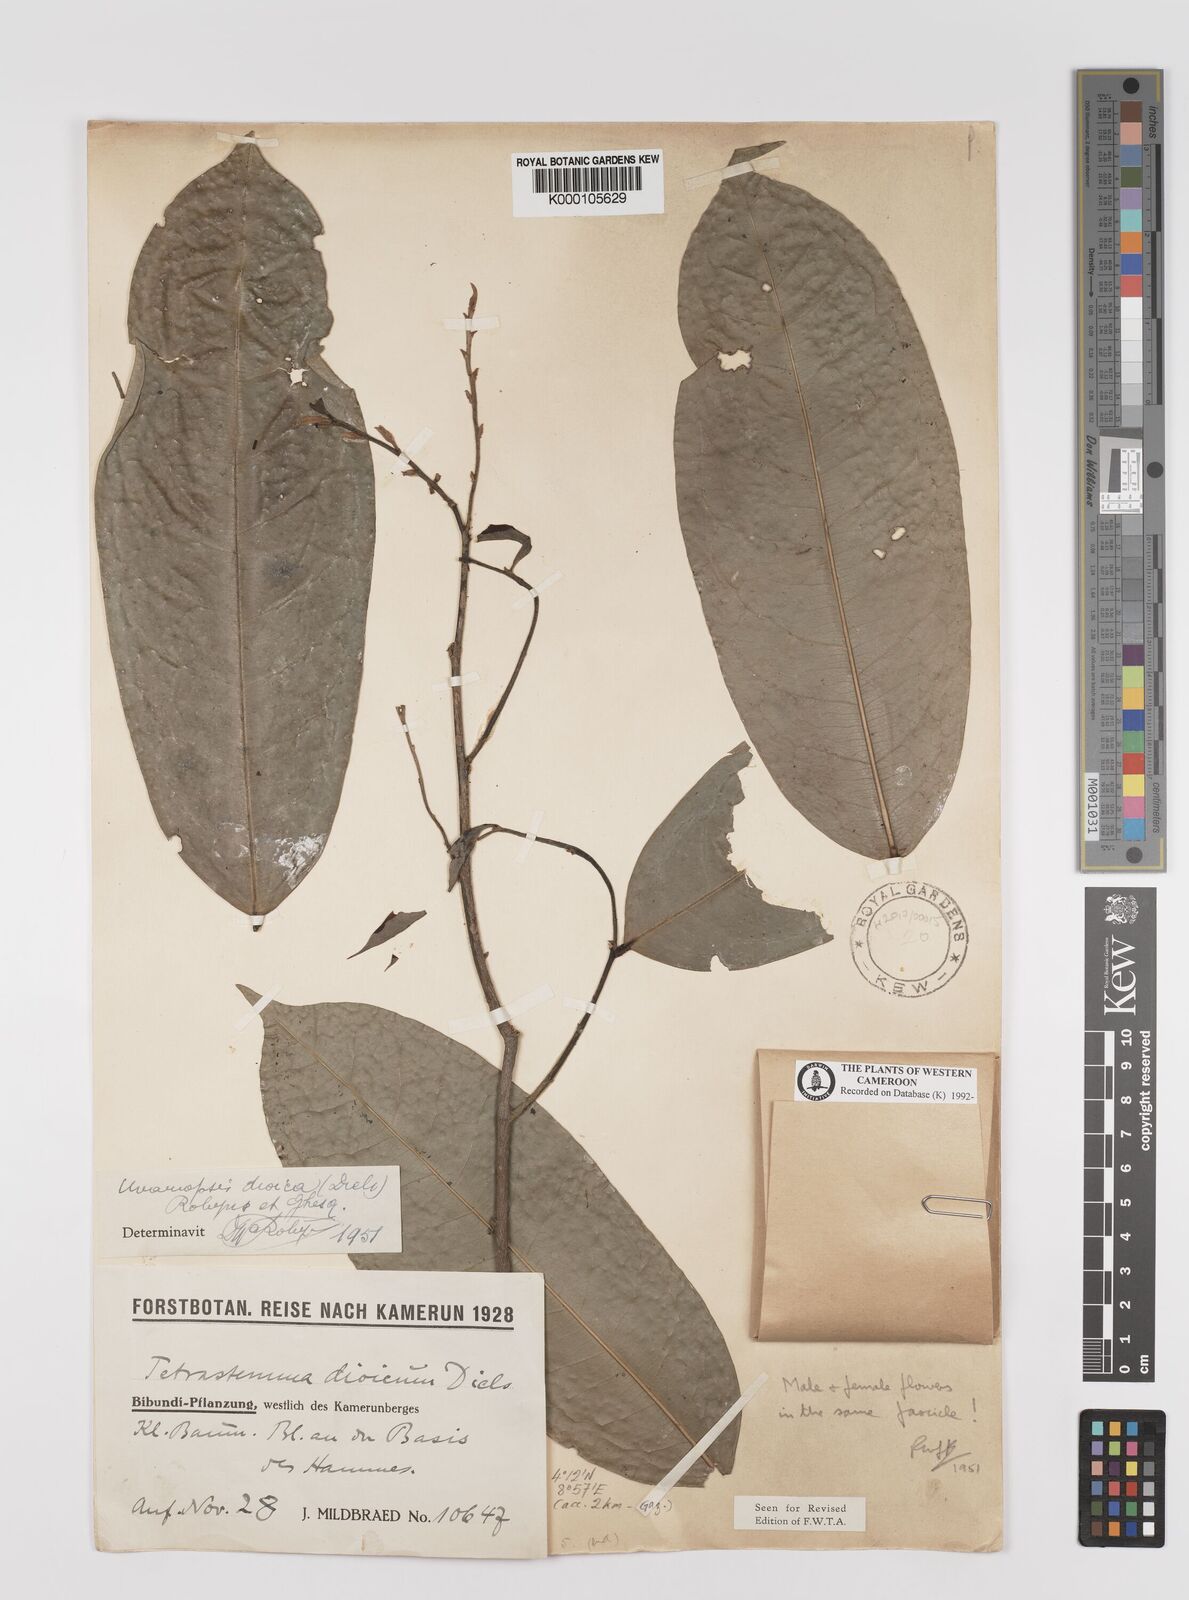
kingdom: Plantae
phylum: Tracheophyta
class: Magnoliopsida
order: Magnoliales
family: Annonaceae
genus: Uvariopsis
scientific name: Uvariopsis dioica
